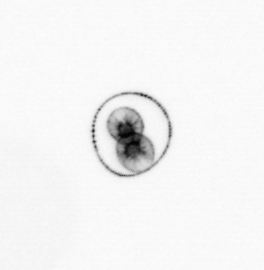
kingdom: Chromista
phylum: Myzozoa
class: Dinophyceae
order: Noctilucales
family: Noctilucaceae
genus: Noctiluca
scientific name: Noctiluca scintillans
